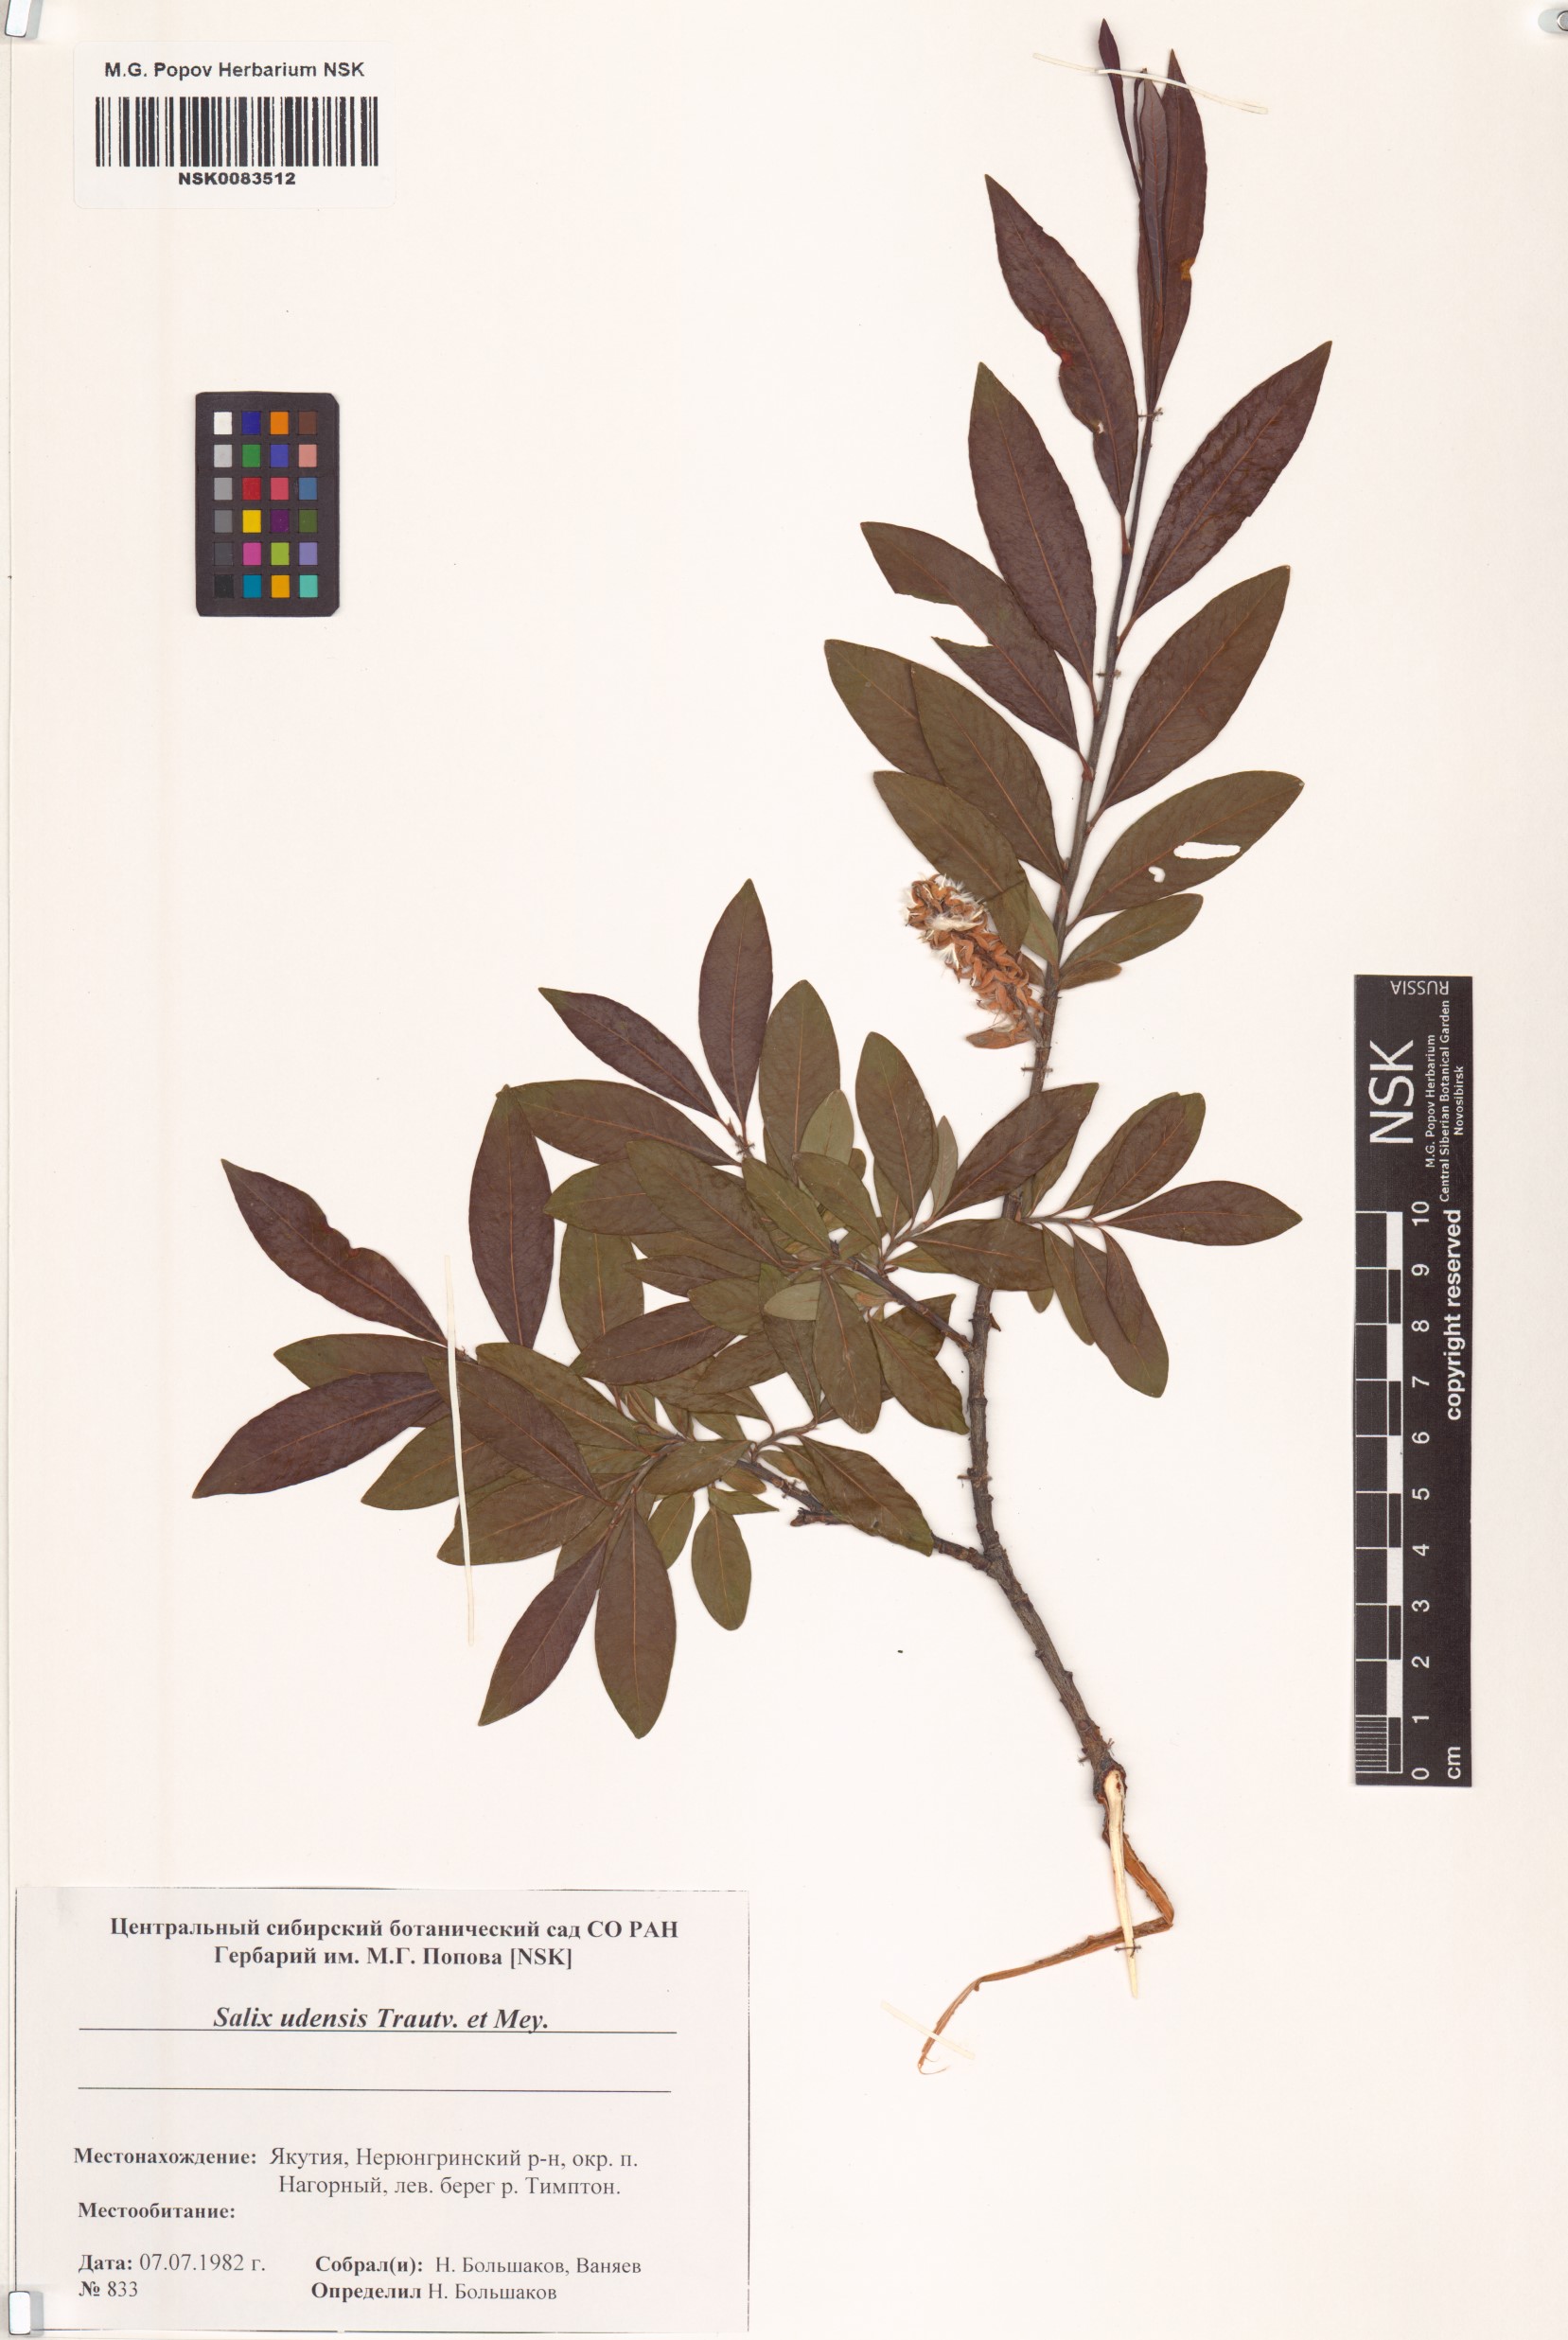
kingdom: Plantae
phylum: Tracheophyta
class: Magnoliopsida
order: Malpighiales
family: Salicaceae
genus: Salix
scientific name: Salix udensis
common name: Sachalin willow
